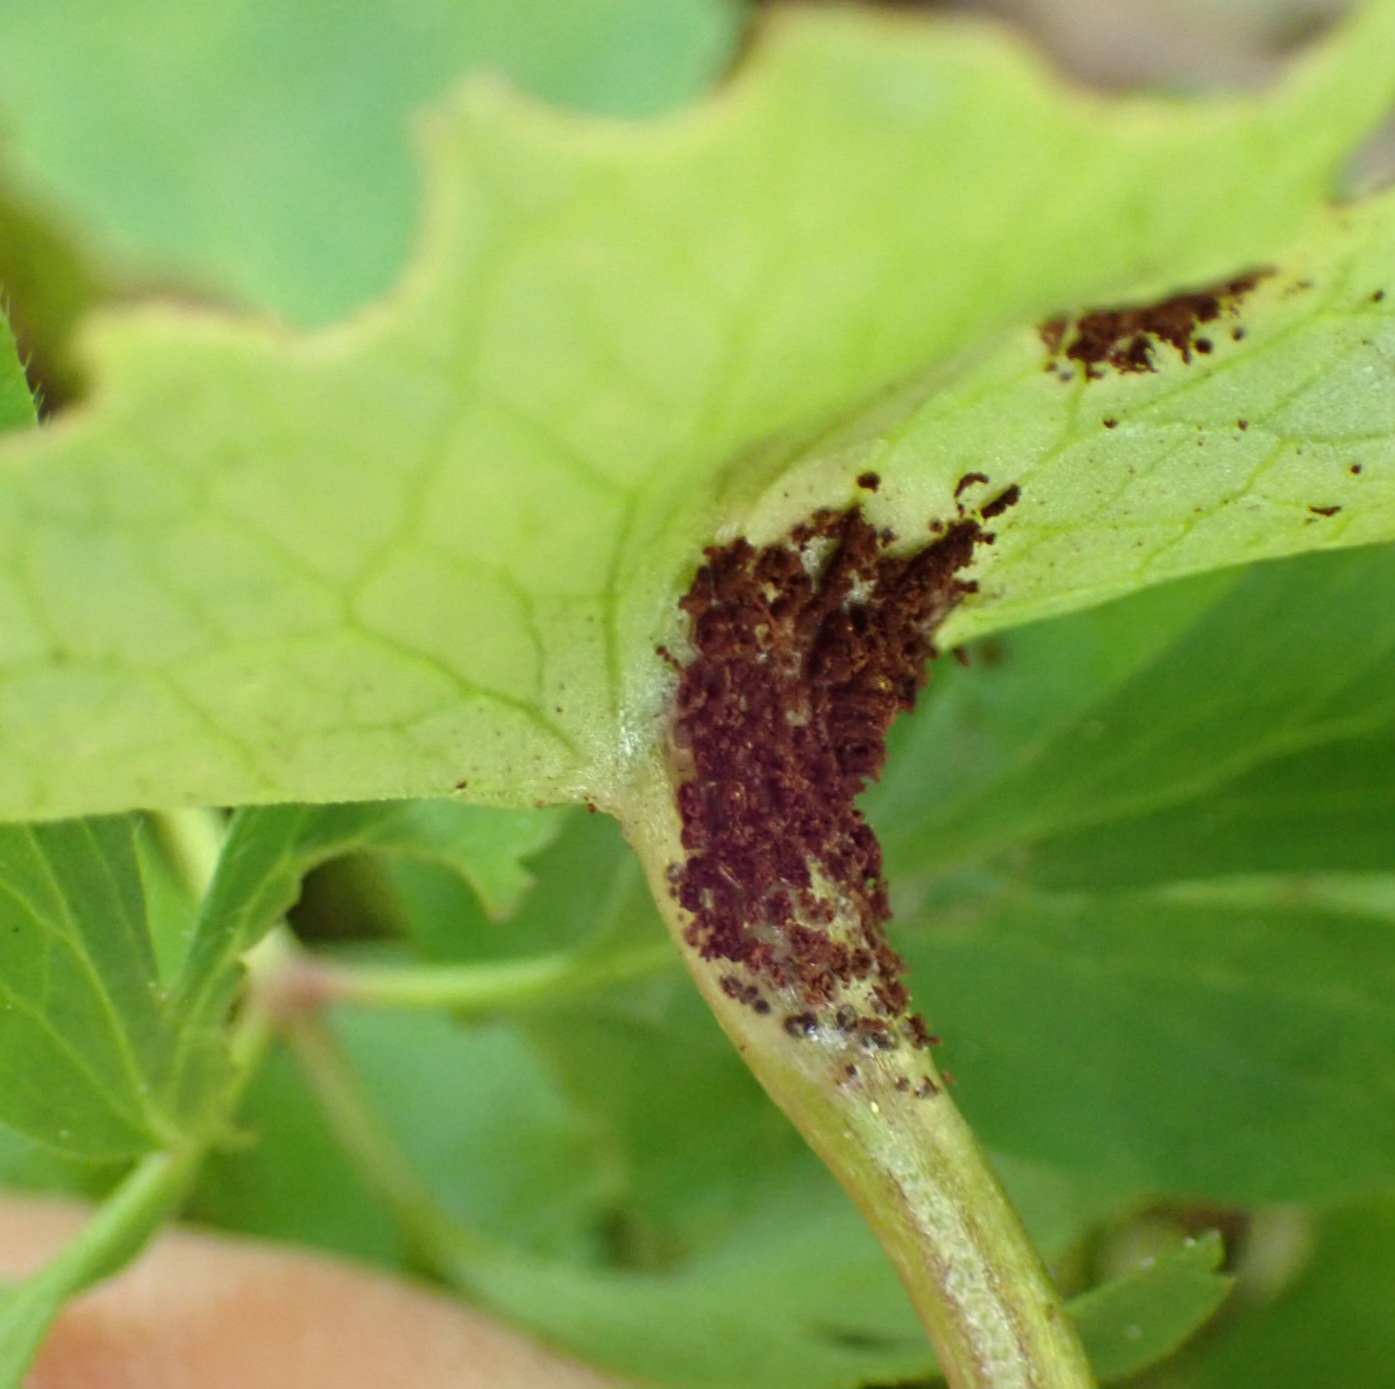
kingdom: Fungi
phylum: Basidiomycota
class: Pucciniomycetes
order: Pucciniales
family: Pucciniaceae
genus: Uromyces
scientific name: Uromyces ficariae
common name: vorterod-encellerust
